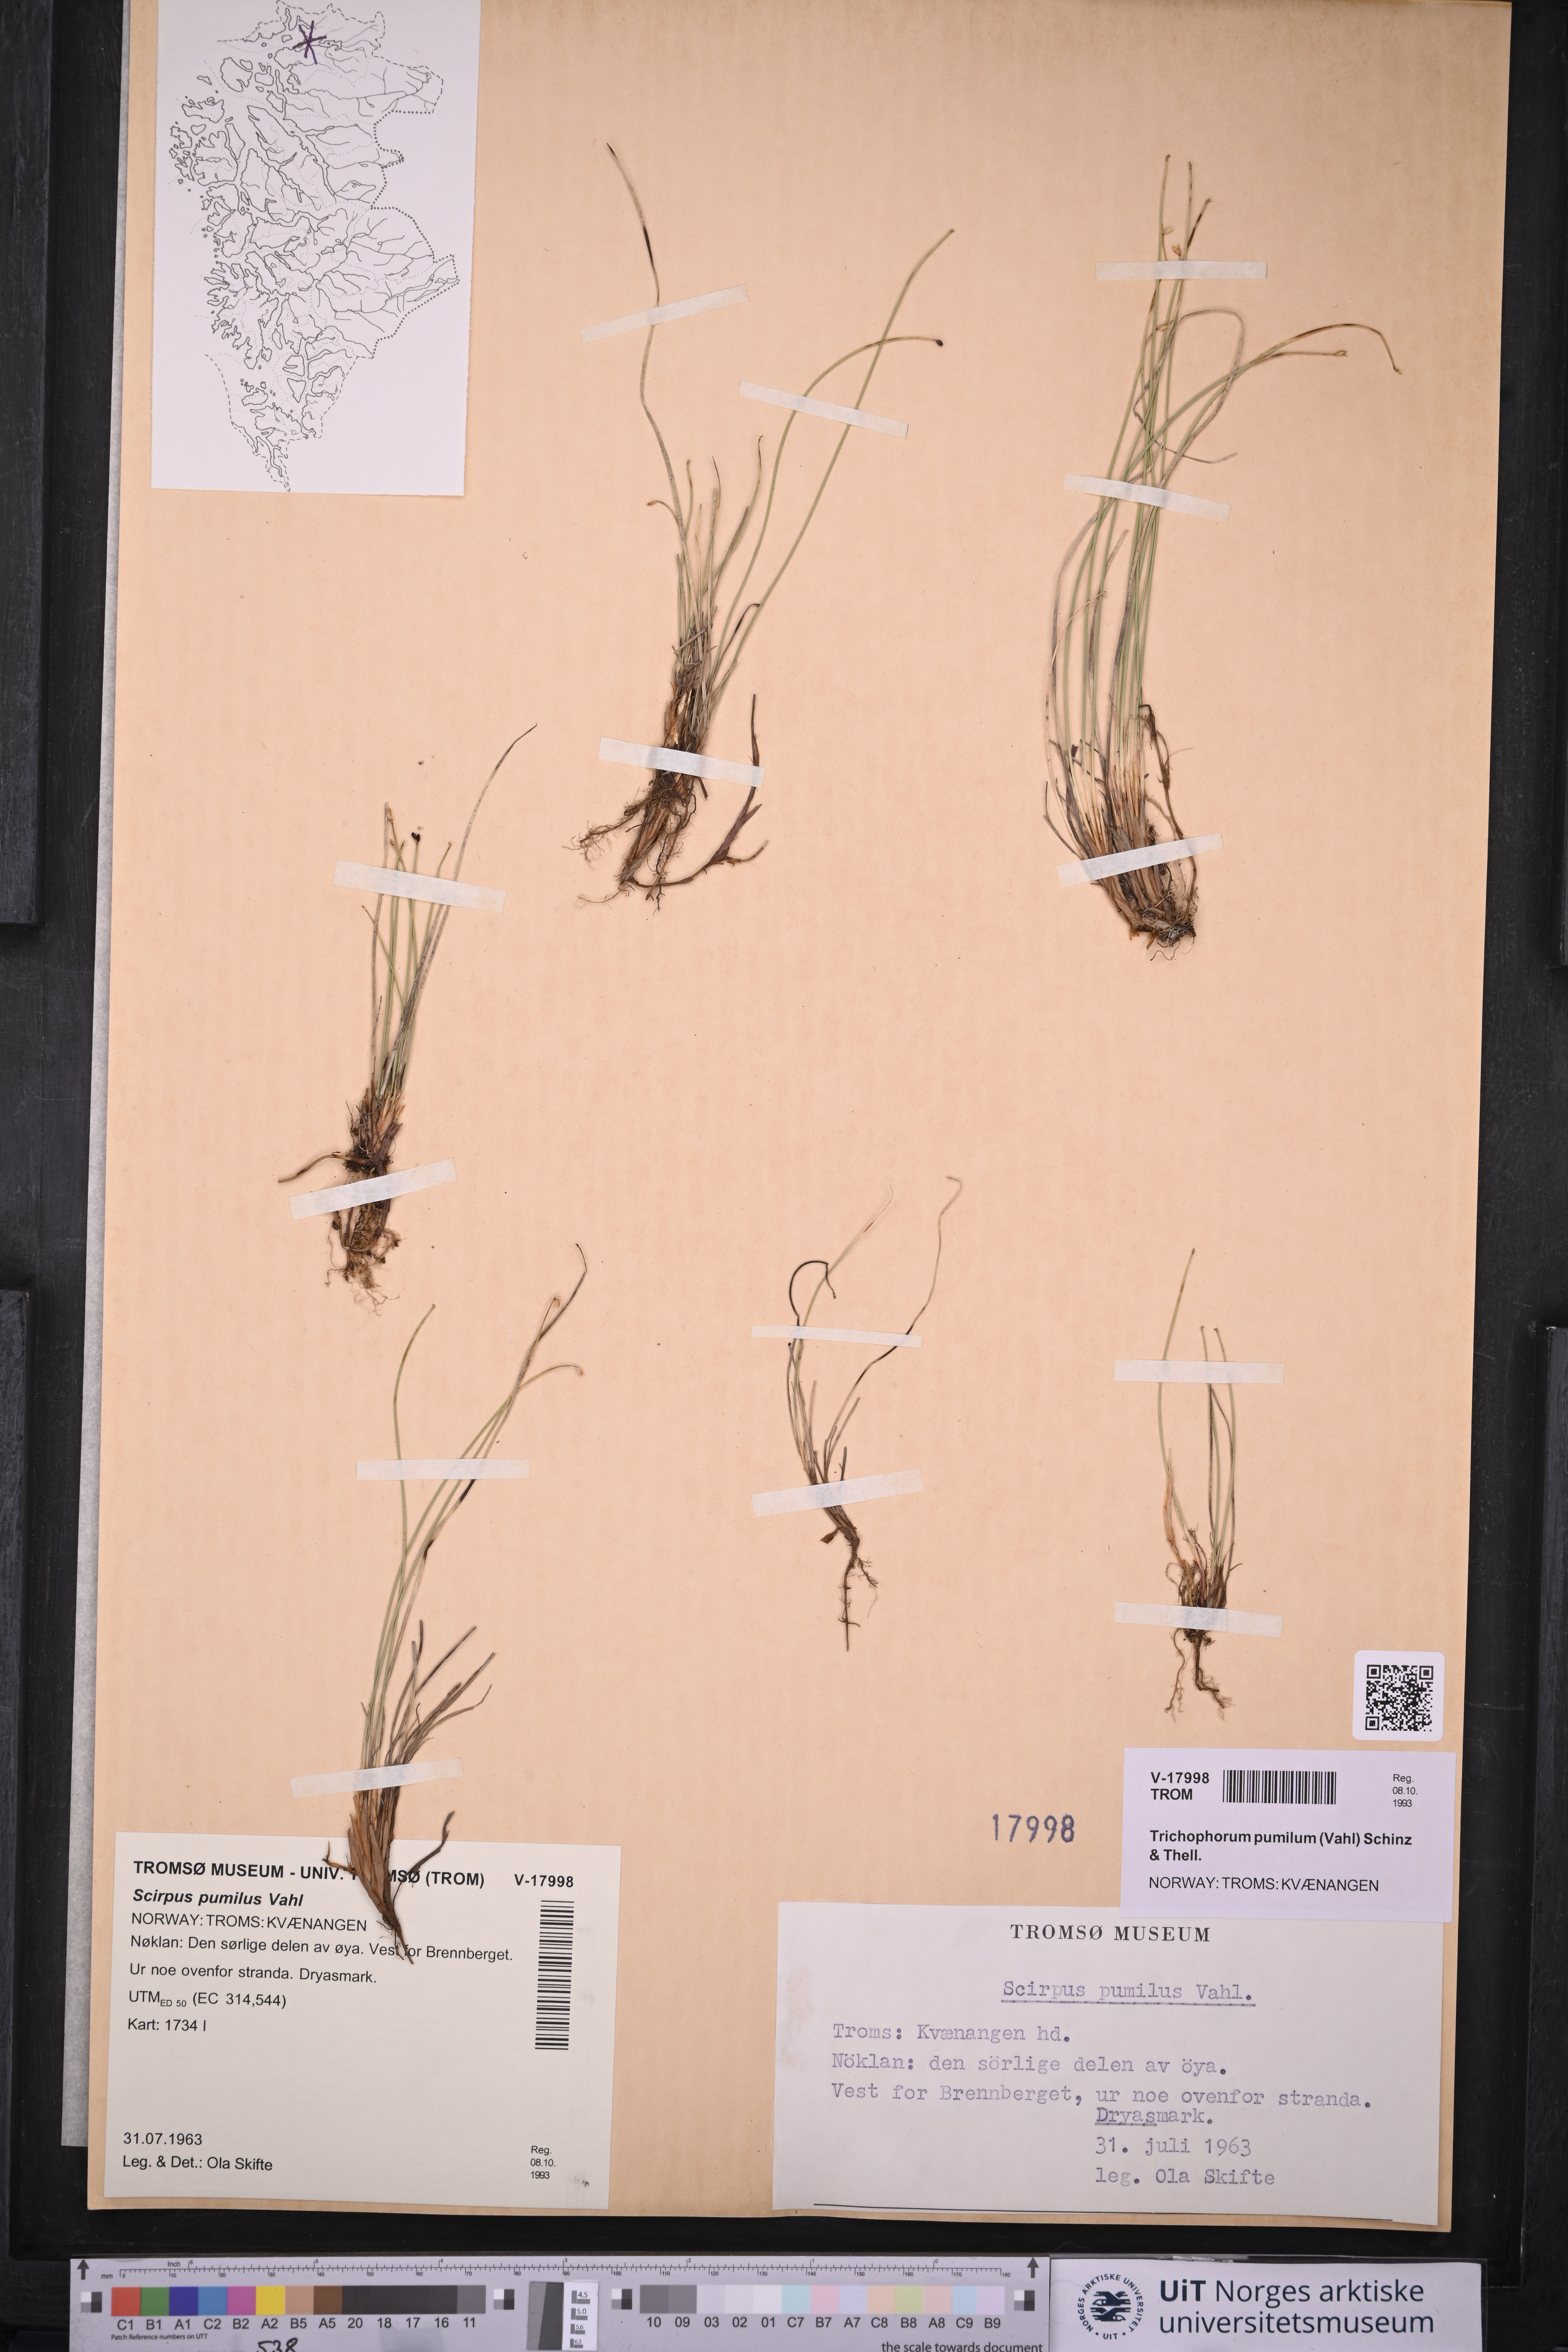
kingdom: Plantae
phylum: Tracheophyta
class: Liliopsida
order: Poales
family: Cyperaceae
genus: Trichophorum
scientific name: Trichophorum pumilum
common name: Rolland's bulrush
